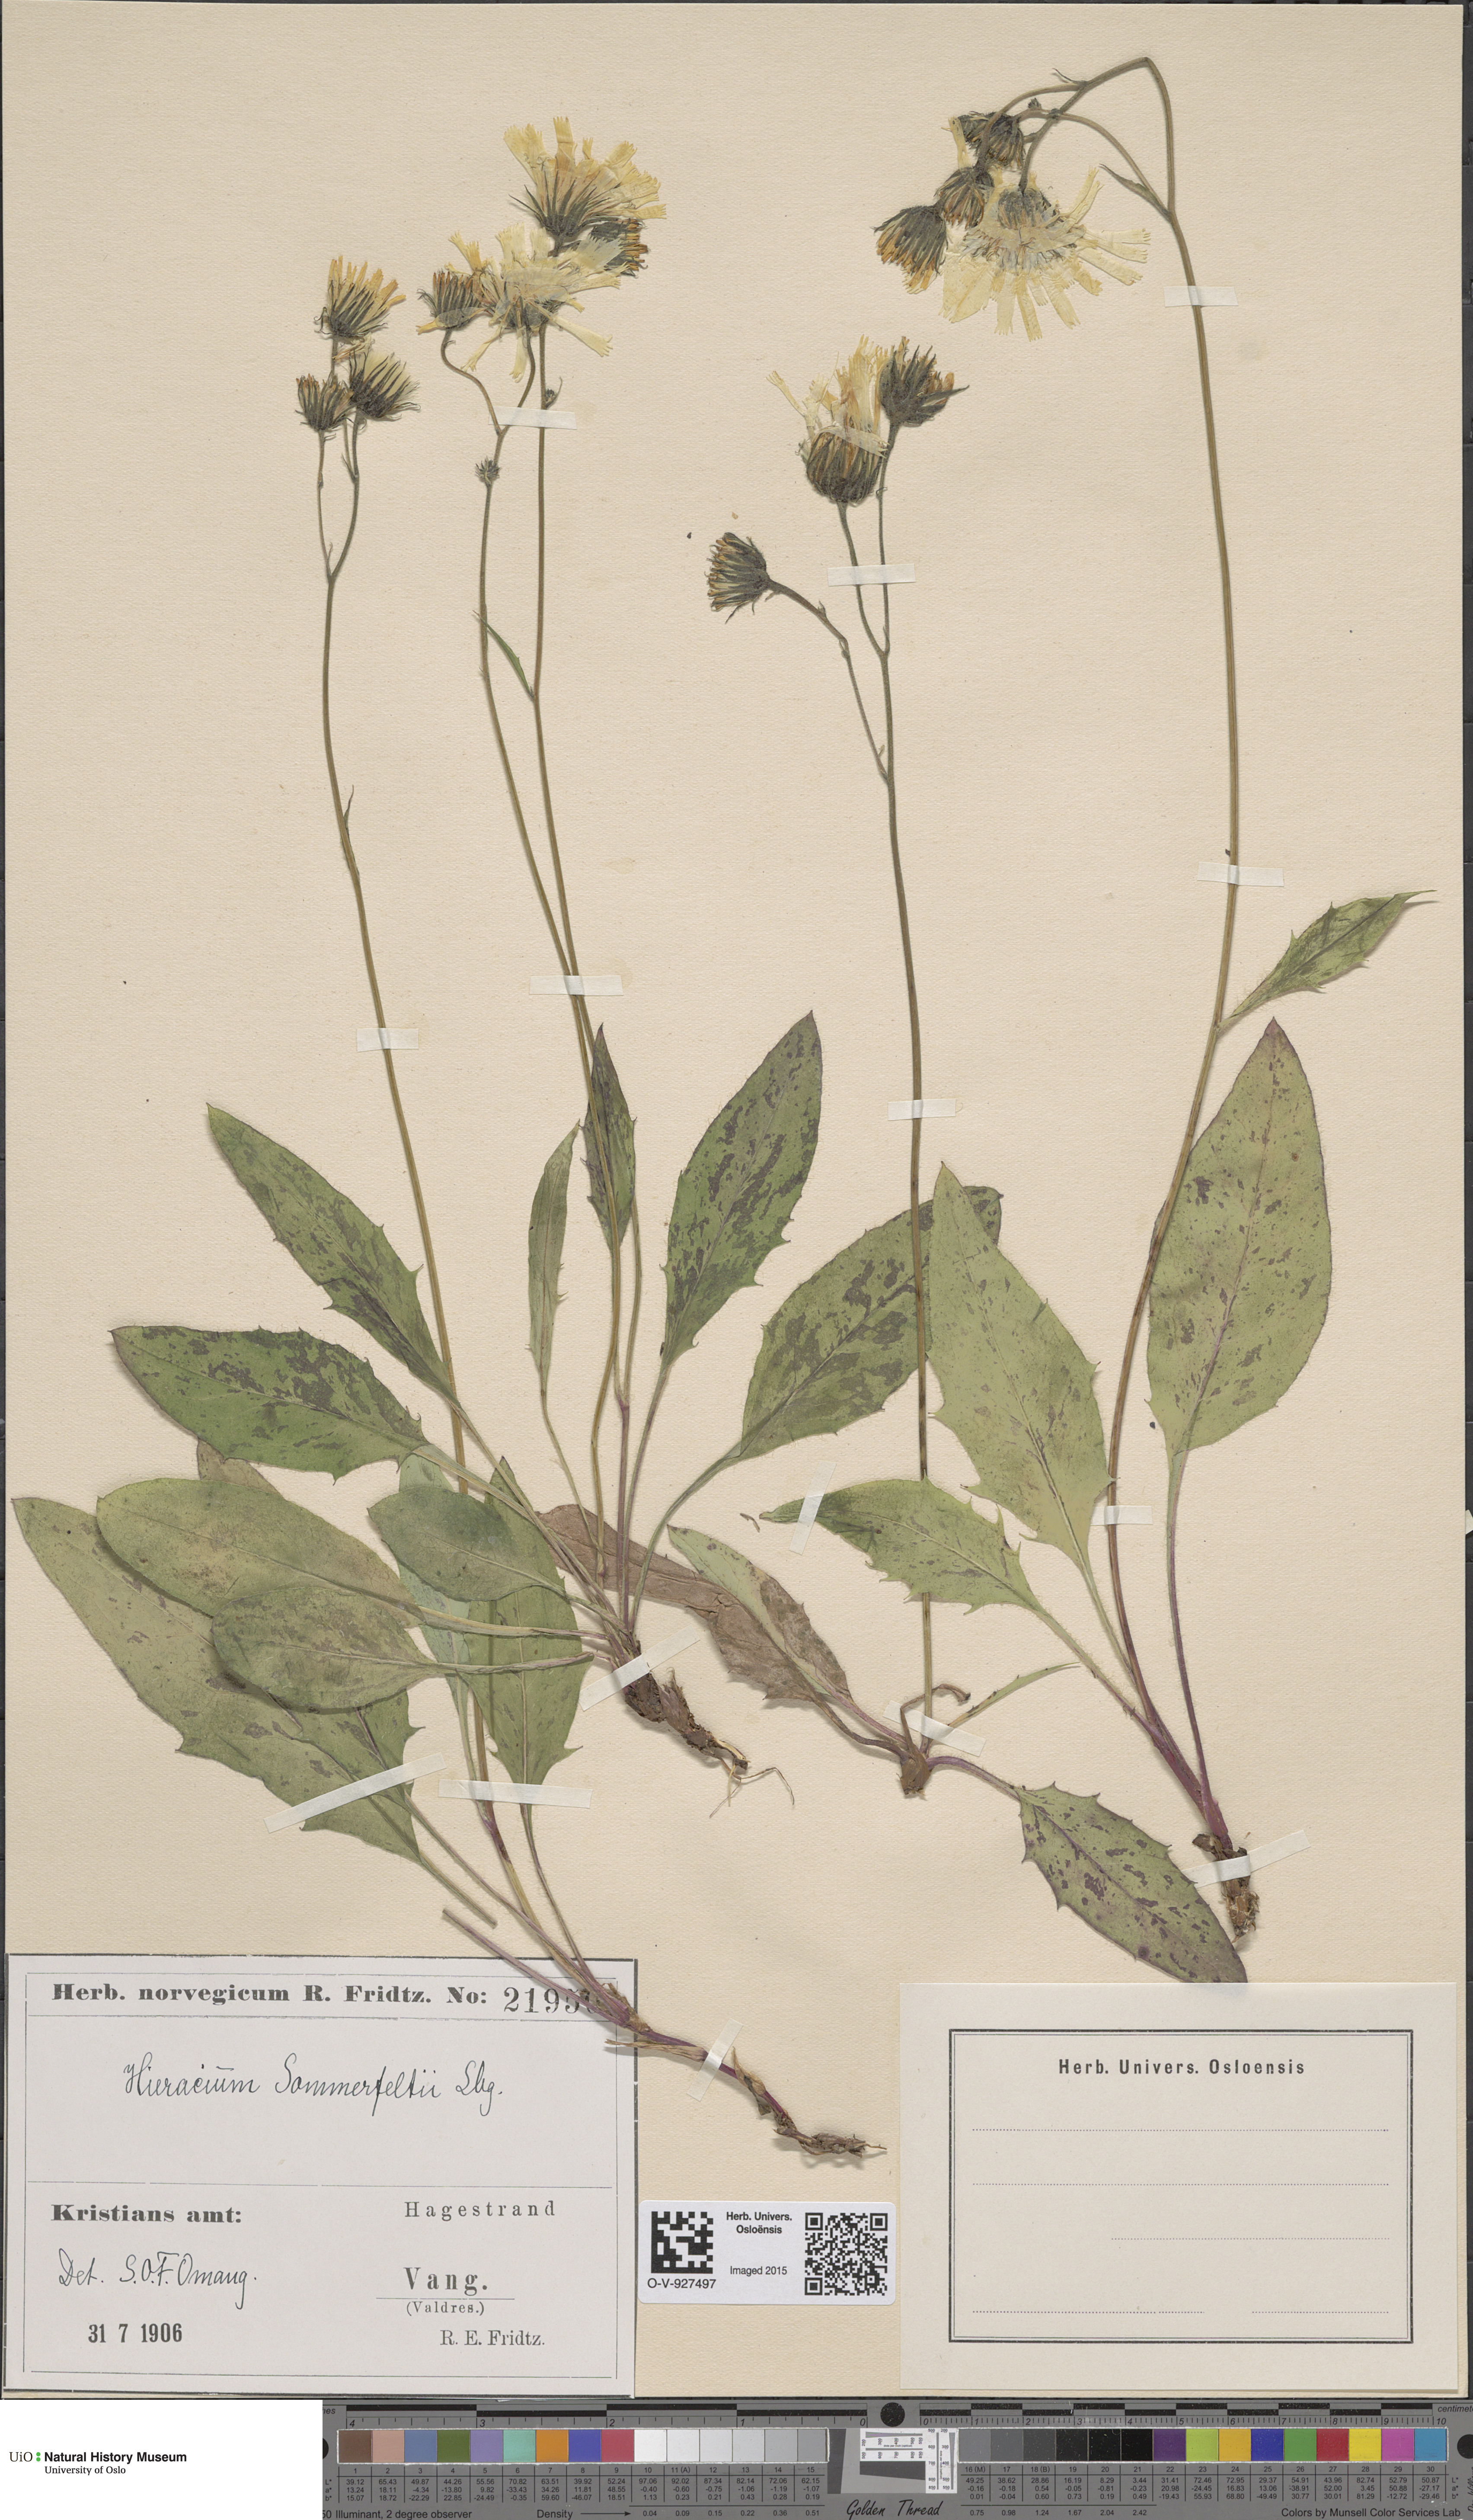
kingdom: Plantae
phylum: Tracheophyta
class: Magnoliopsida
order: Asterales
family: Asteraceae
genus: Hieracium
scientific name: Hieracium sommerfeltii
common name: Sommerfelt's hawkweed
